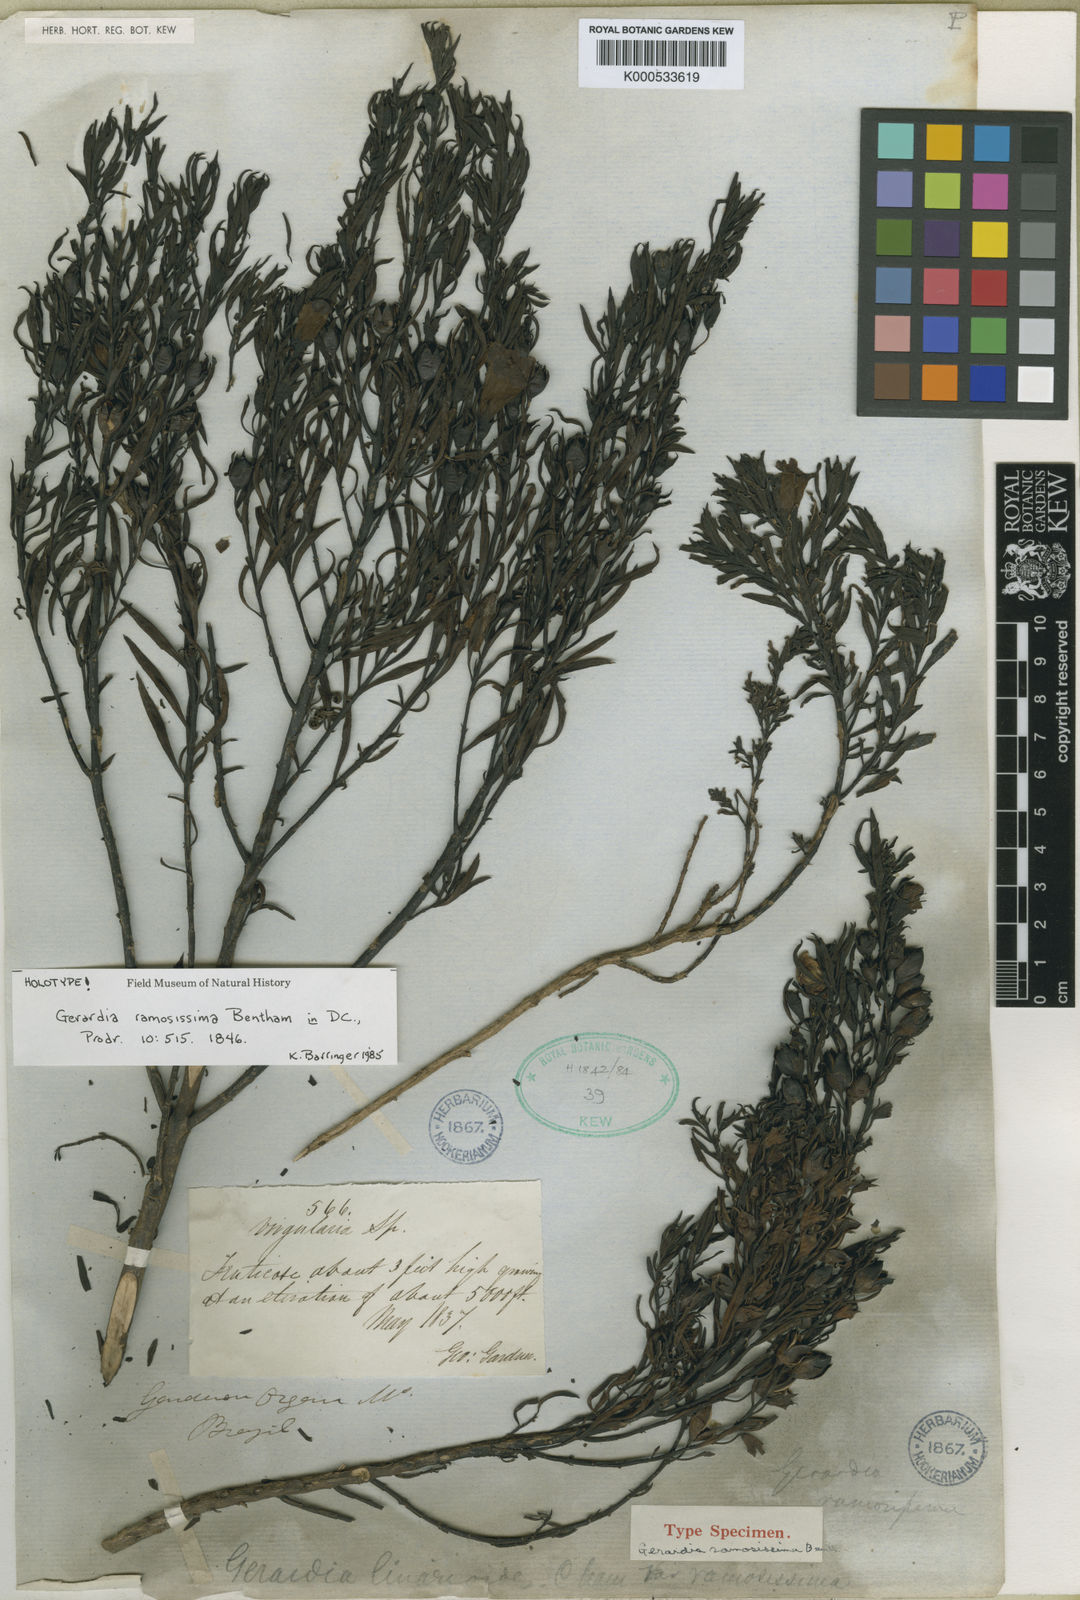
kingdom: Plantae
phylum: Tracheophyta
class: Magnoliopsida
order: Lamiales
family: Orobanchaceae
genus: Agalinis
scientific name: Agalinis
